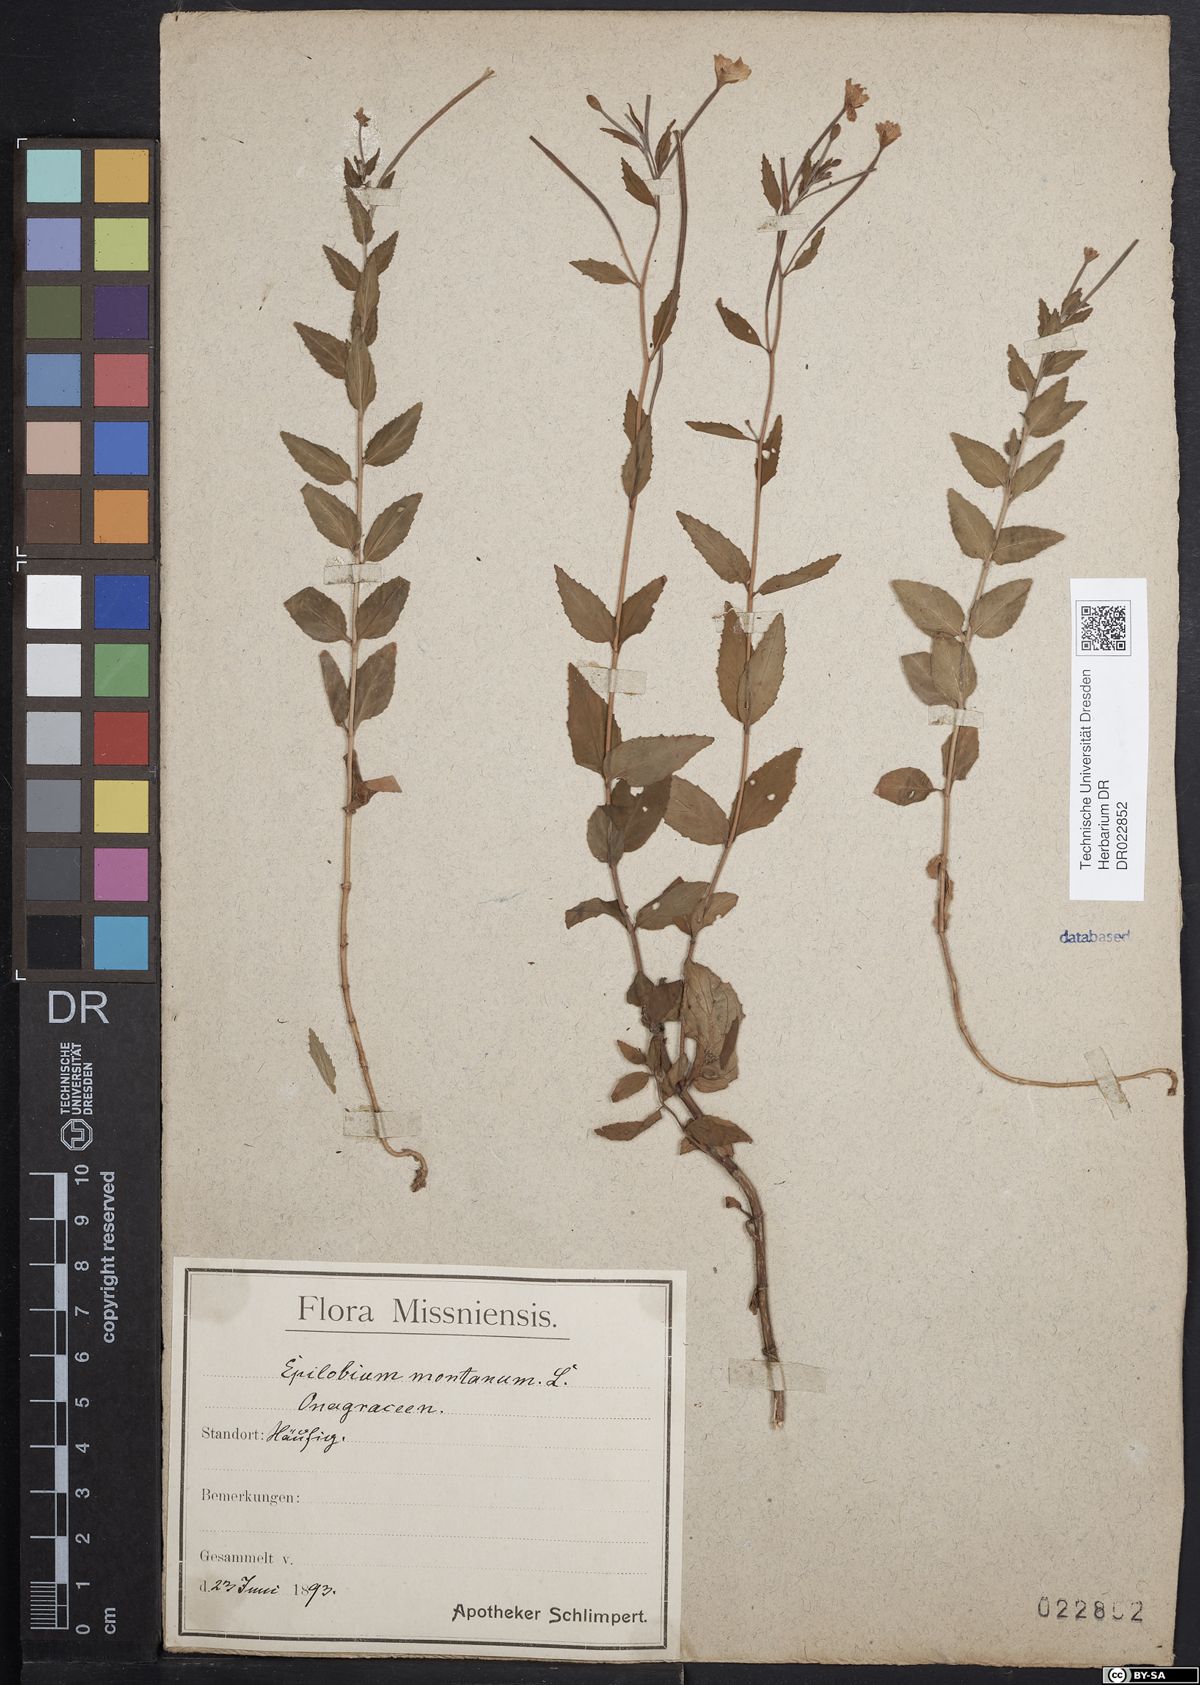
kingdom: Plantae
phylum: Tracheophyta
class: Magnoliopsida
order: Myrtales
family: Onagraceae
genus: Epilobium
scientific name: Epilobium montanum
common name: Broad-leaved willowherb
